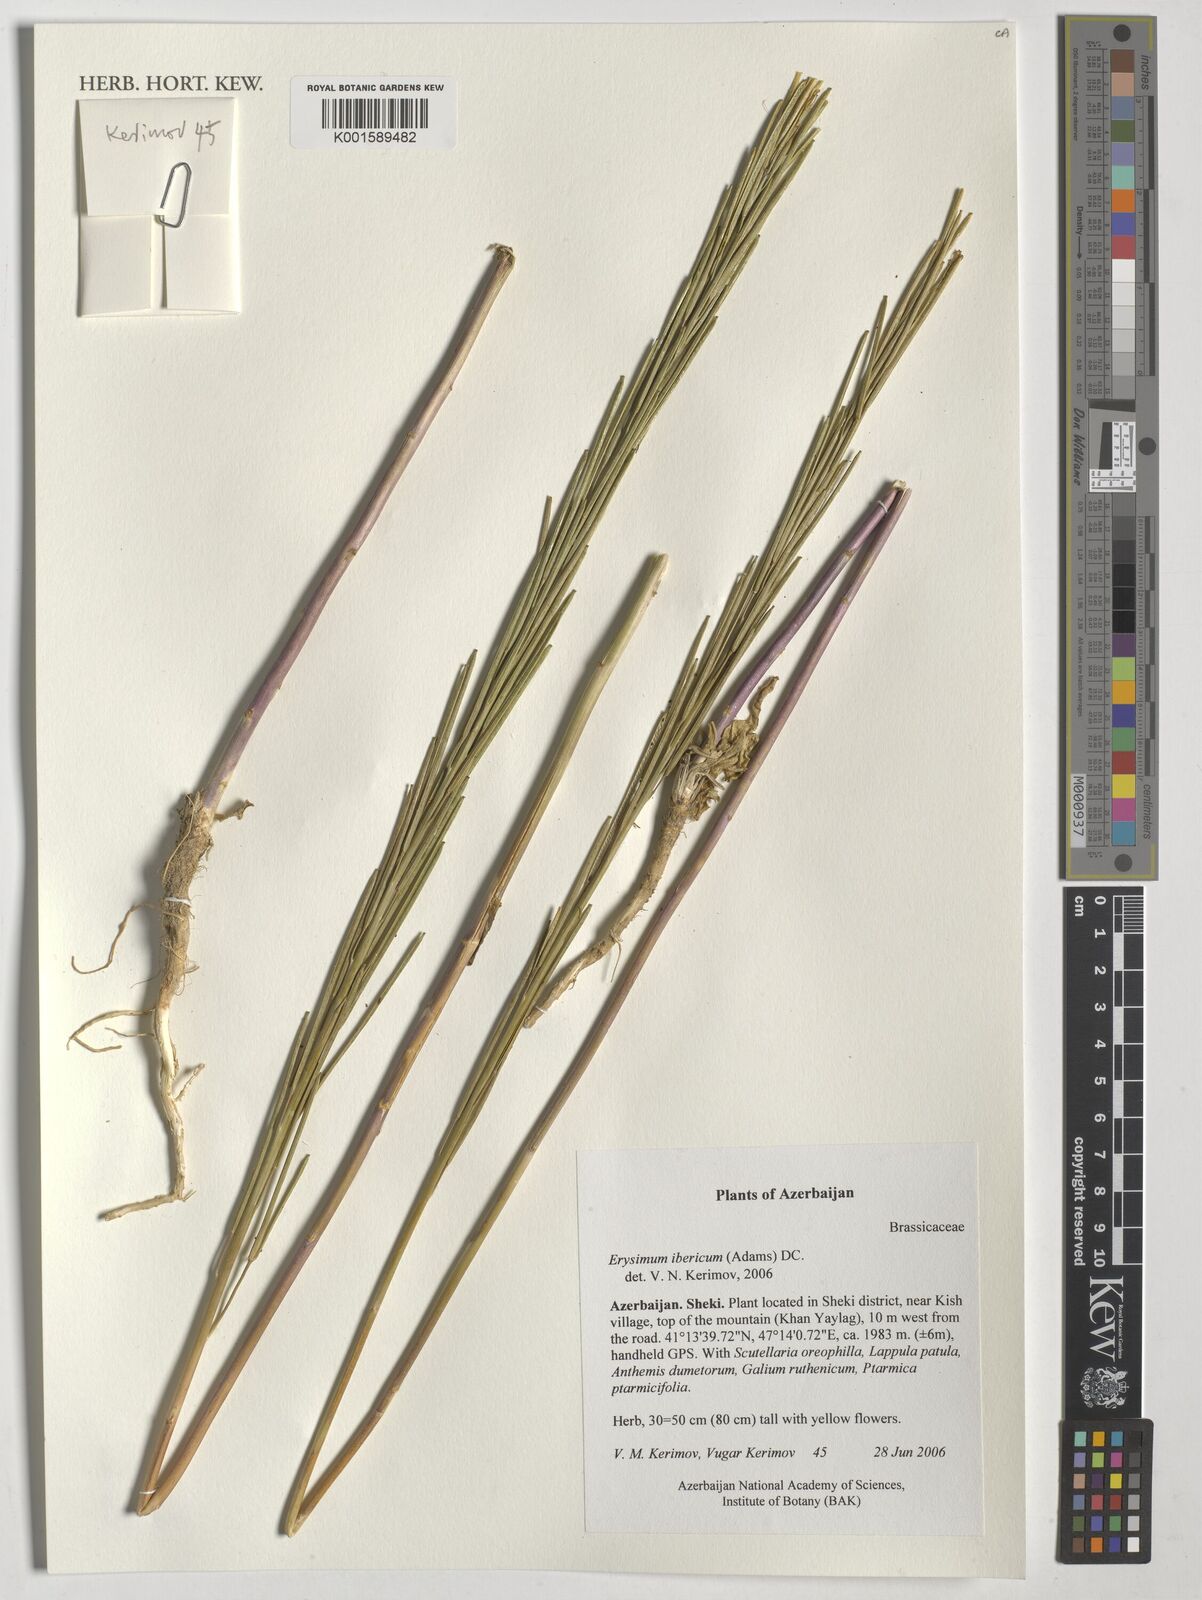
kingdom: Plantae
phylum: Tracheophyta
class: Magnoliopsida
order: Brassicales
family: Brassicaceae
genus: Erysimum
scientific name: Erysimum ibericum
